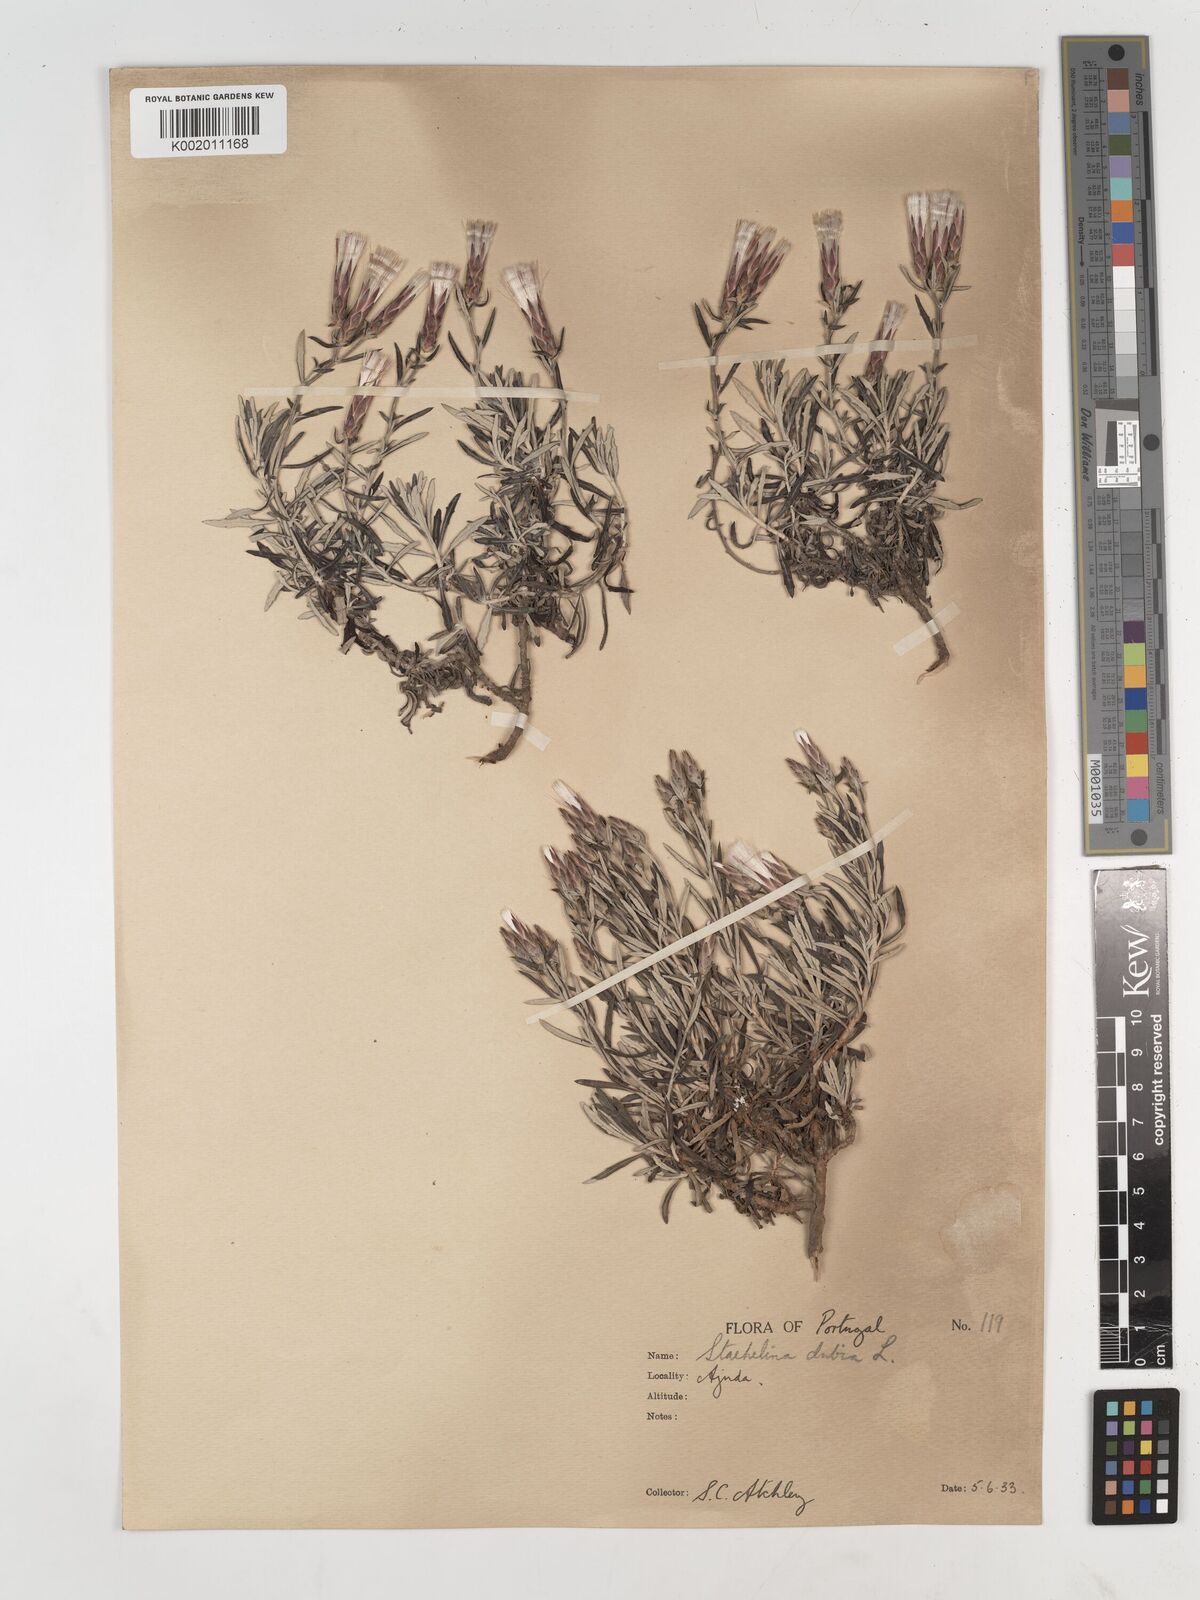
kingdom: Plantae
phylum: Tracheophyta
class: Magnoliopsida
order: Asterales
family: Asteraceae
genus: Staehelina
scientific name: Staehelina dubia
